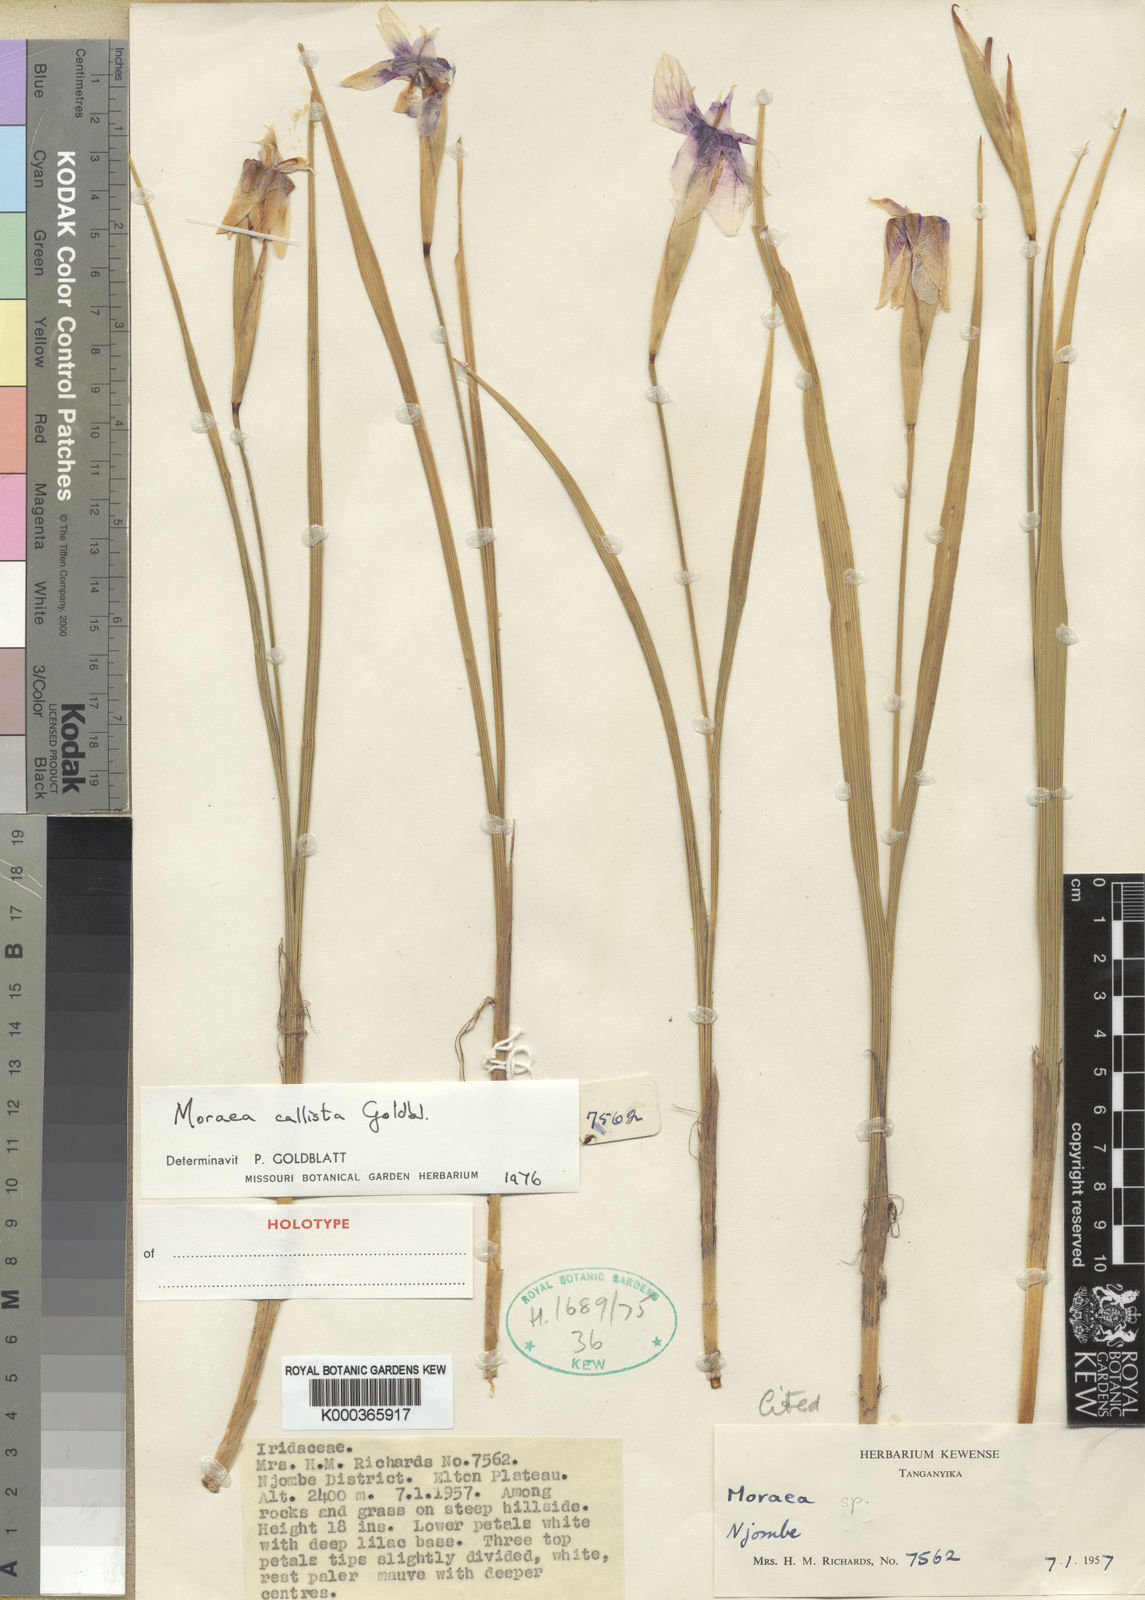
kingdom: Plantae
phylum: Tracheophyta
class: Liliopsida
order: Asparagales
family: Iridaceae
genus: Moraea
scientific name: Moraea callista
